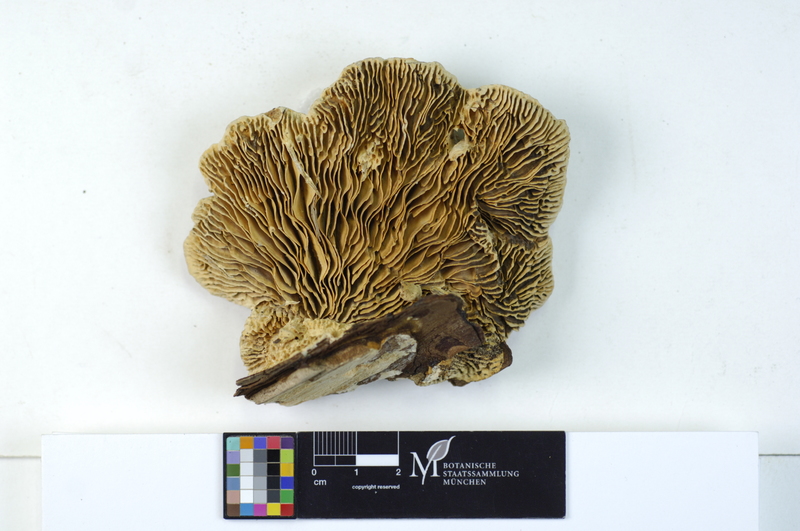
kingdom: Fungi
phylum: Basidiomycota
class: Agaricomycetes
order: Polyporales
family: Polyporaceae
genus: Cellulariella
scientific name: Cellulariella warnieri
